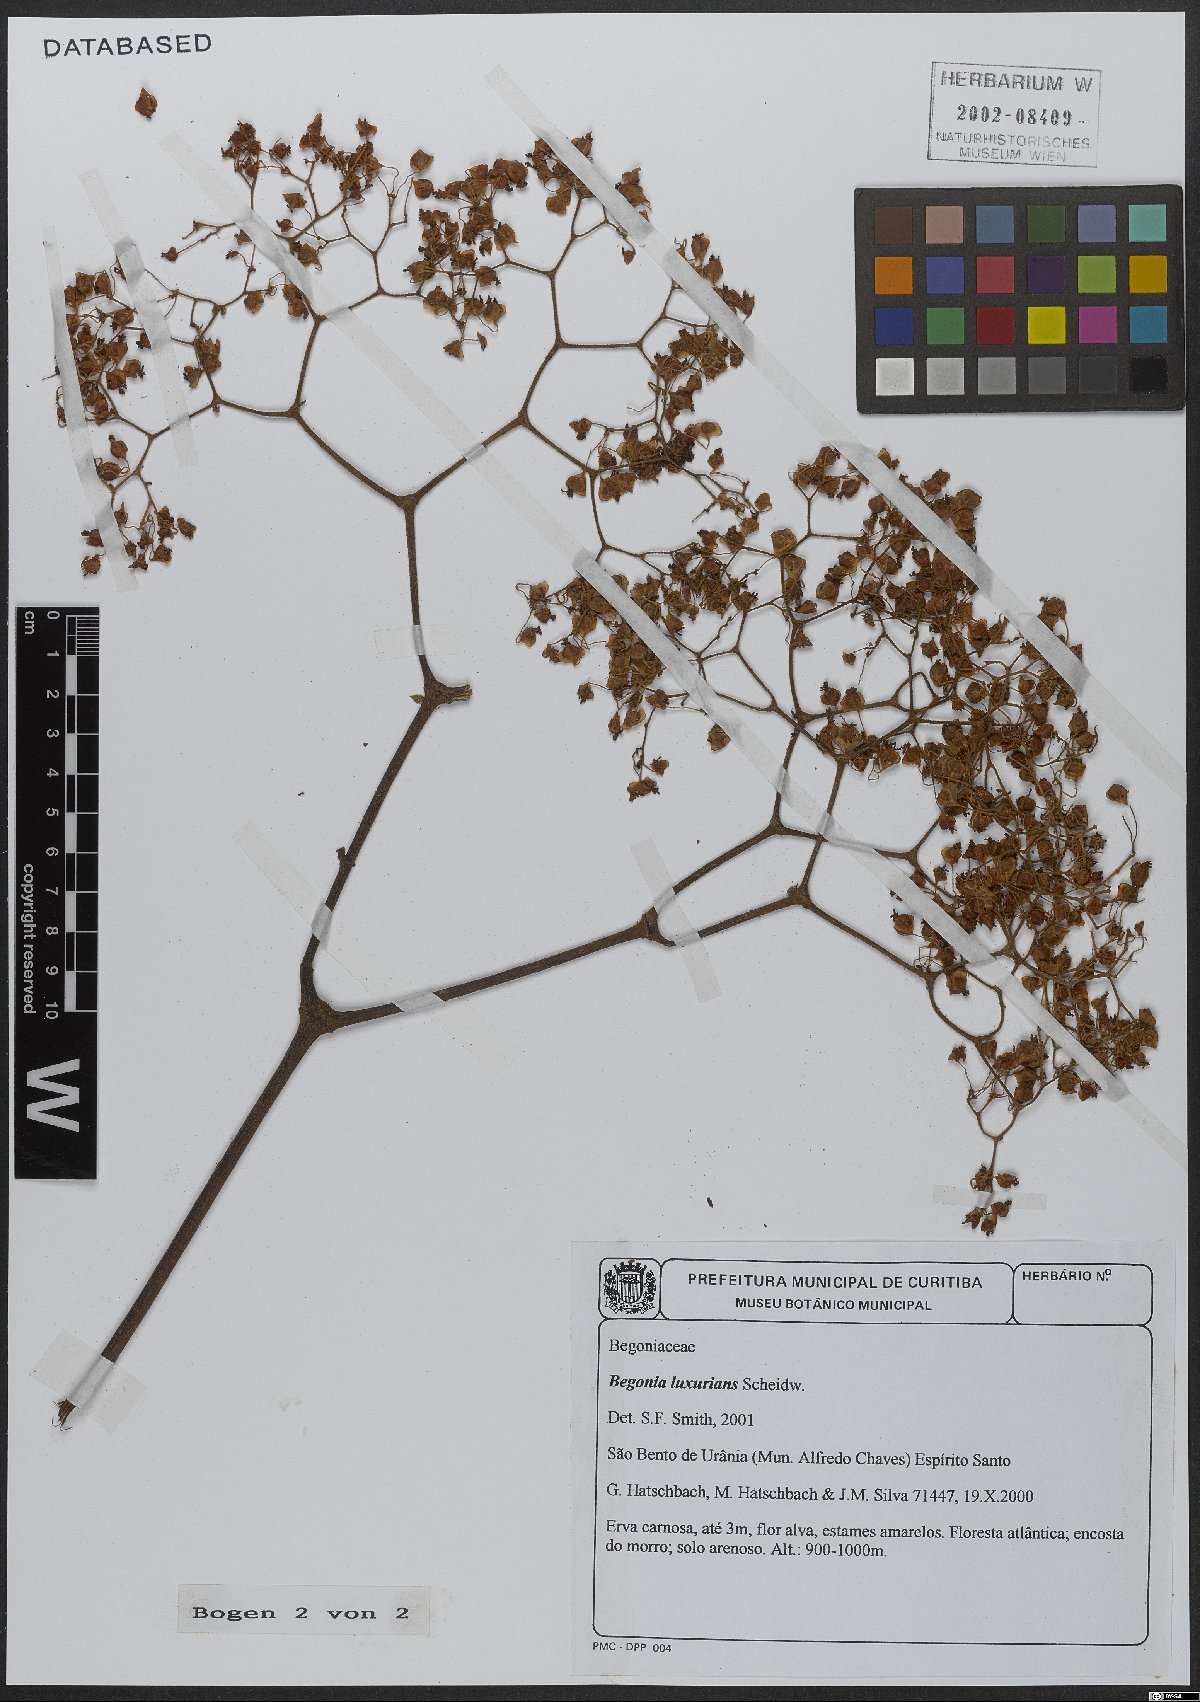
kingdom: Plantae
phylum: Tracheophyta
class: Magnoliopsida
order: Cucurbitales
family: Begoniaceae
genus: Begonia
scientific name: Begonia luxurians
